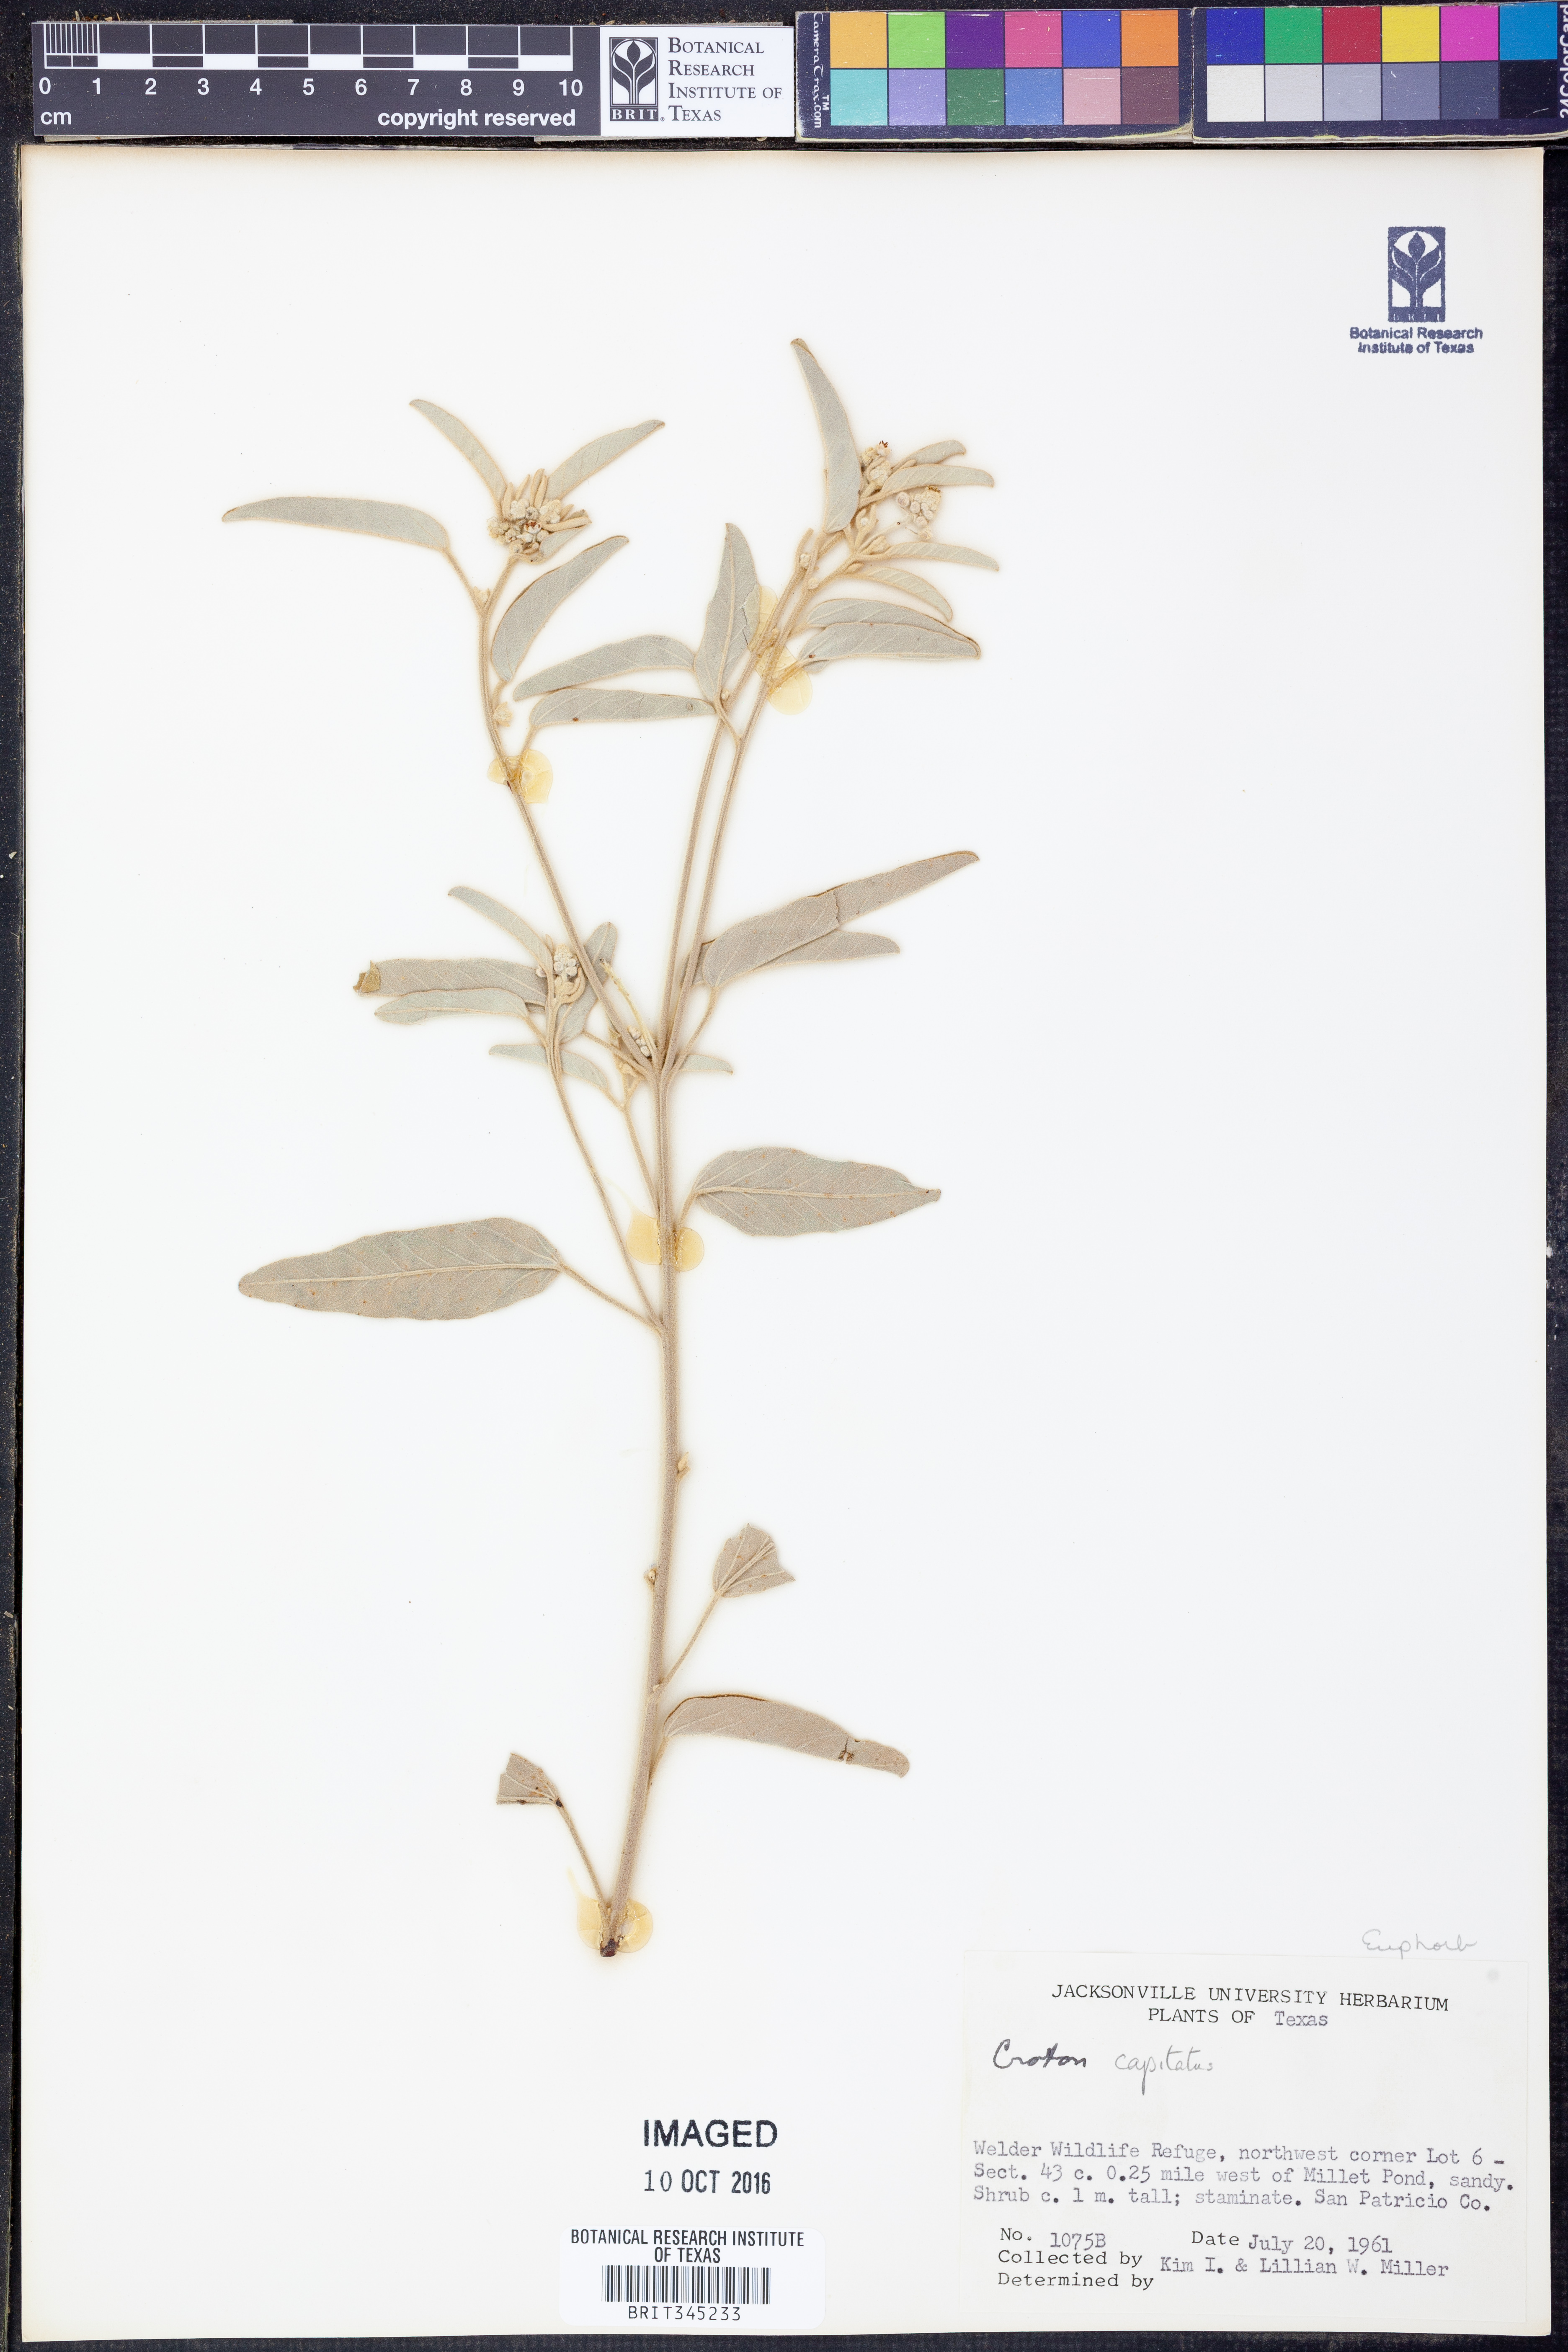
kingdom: Plantae
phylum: Tracheophyta
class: Magnoliopsida
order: Malpighiales
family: Euphorbiaceae
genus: Croton
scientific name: Croton capitatus
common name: Woolly croton
